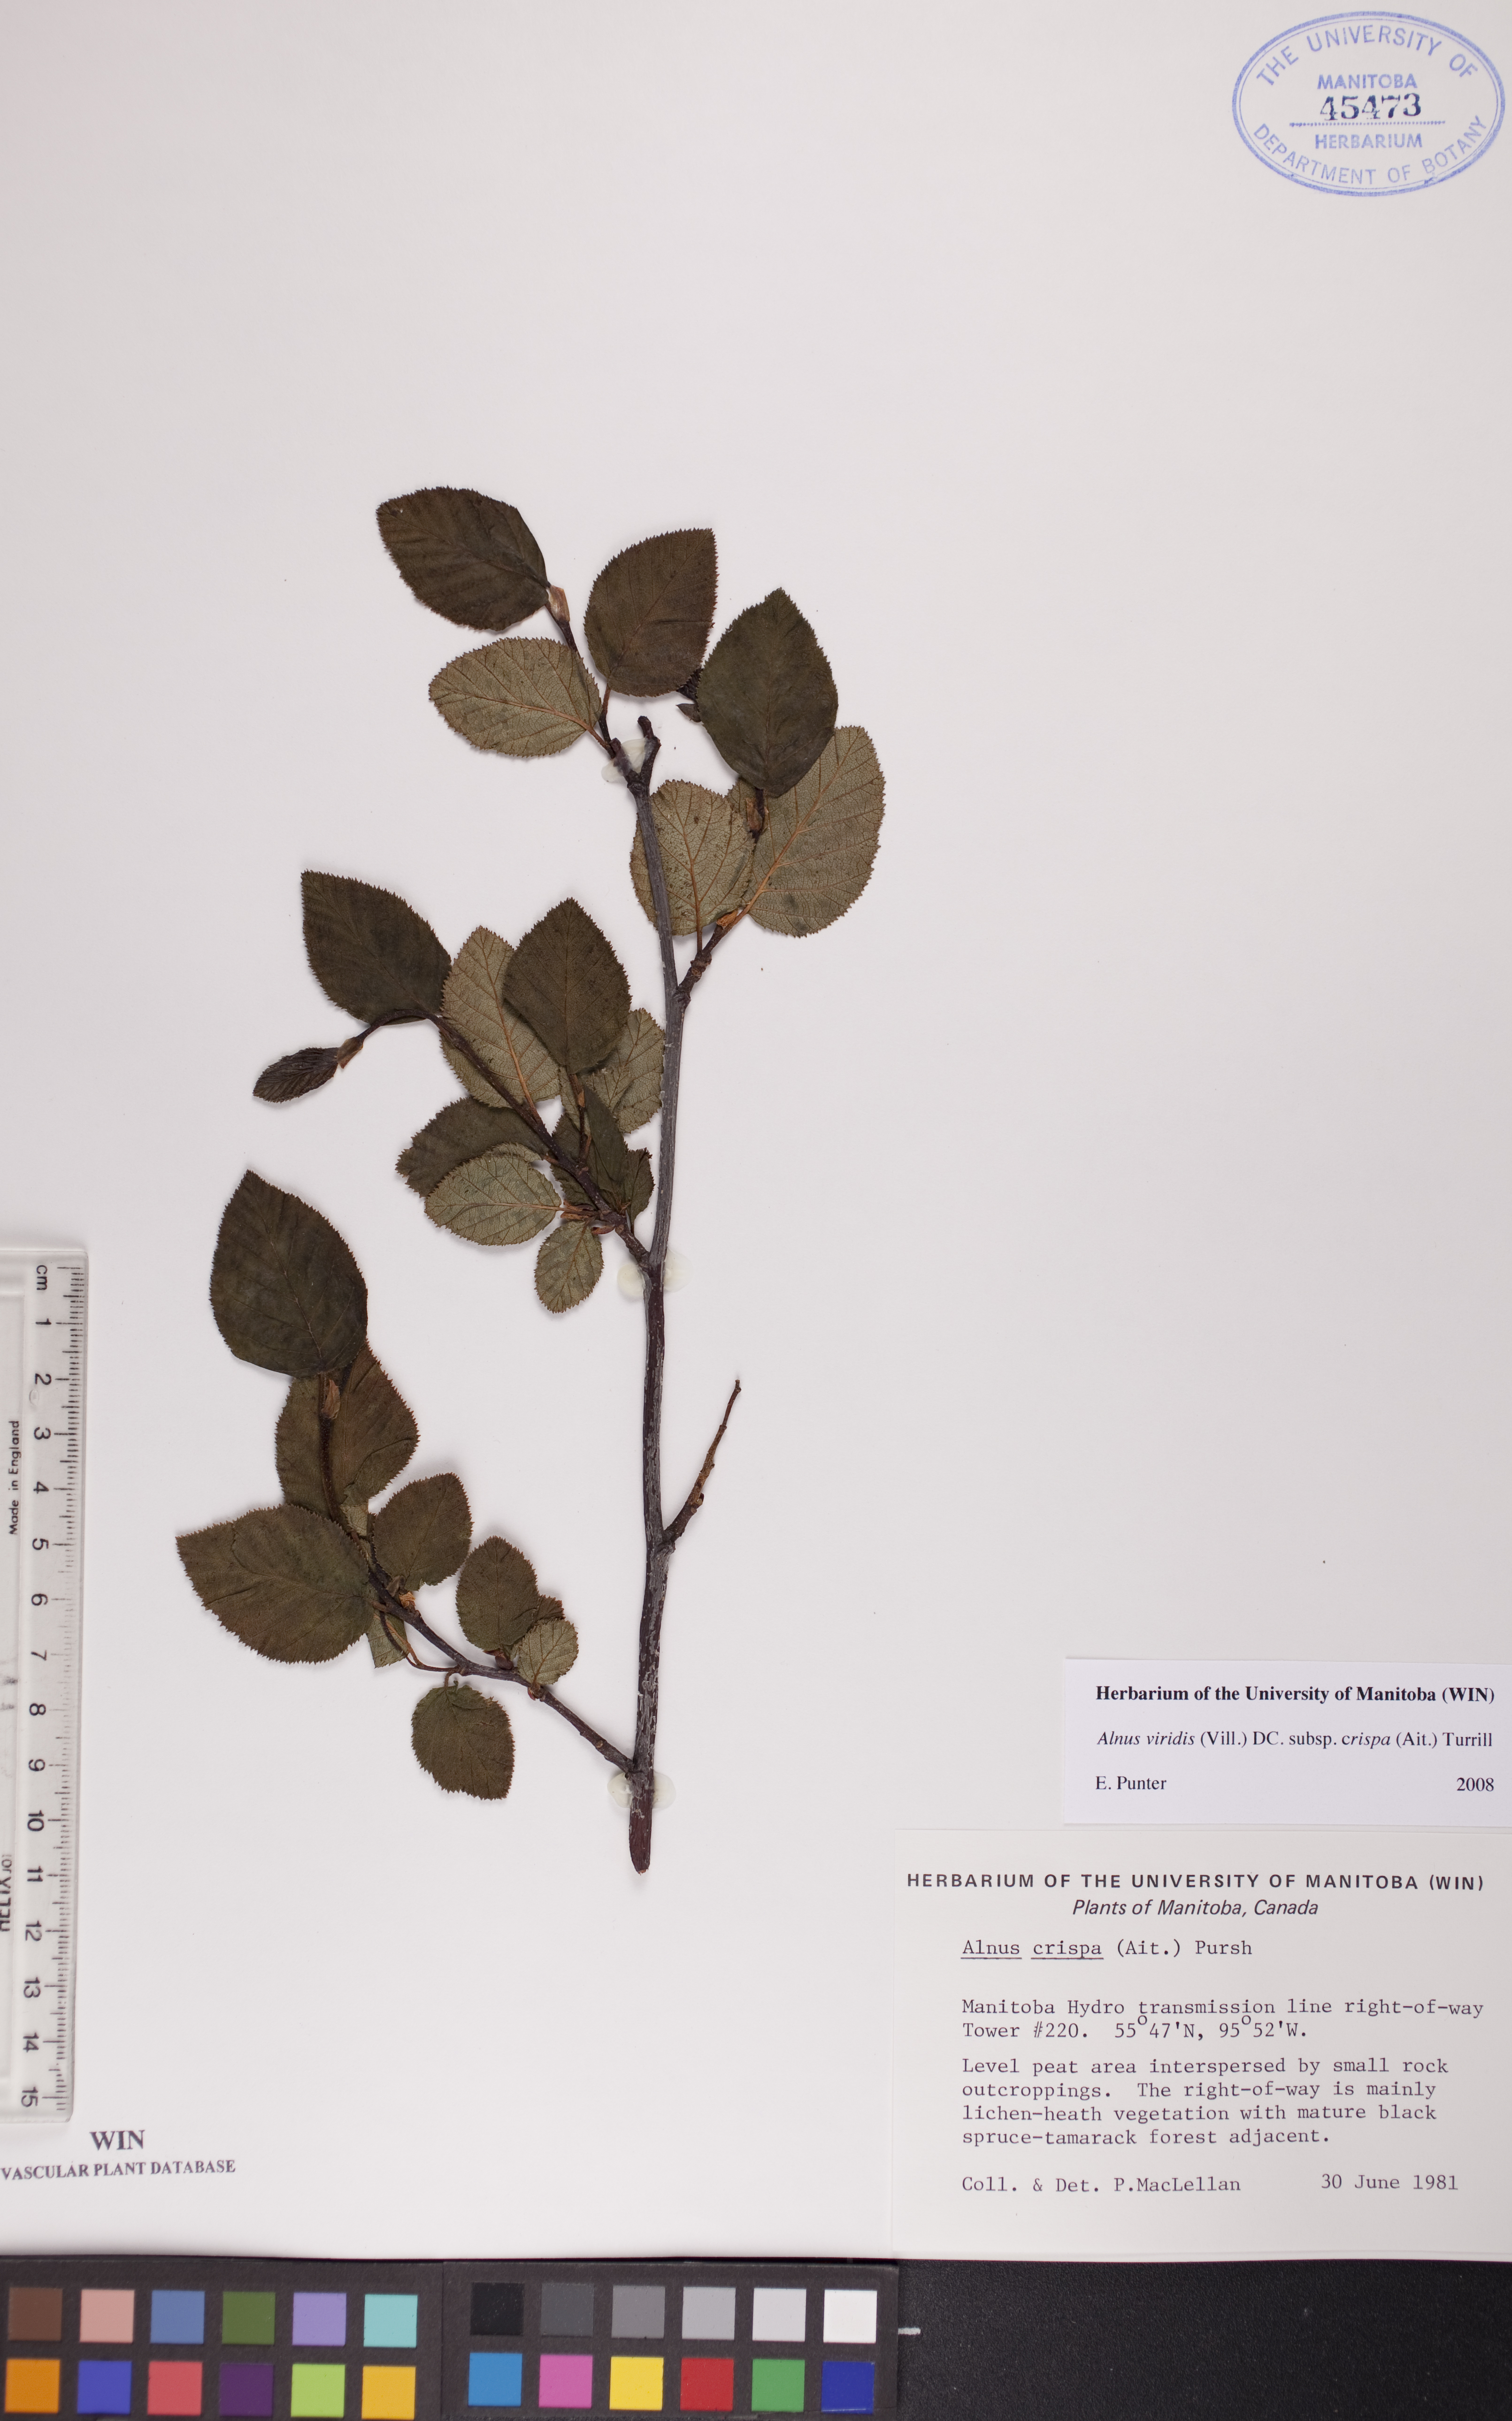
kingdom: Plantae
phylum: Tracheophyta
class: Magnoliopsida
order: Fagales
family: Betulaceae
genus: Alnus
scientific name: Alnus alnobetula
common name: Green alder
